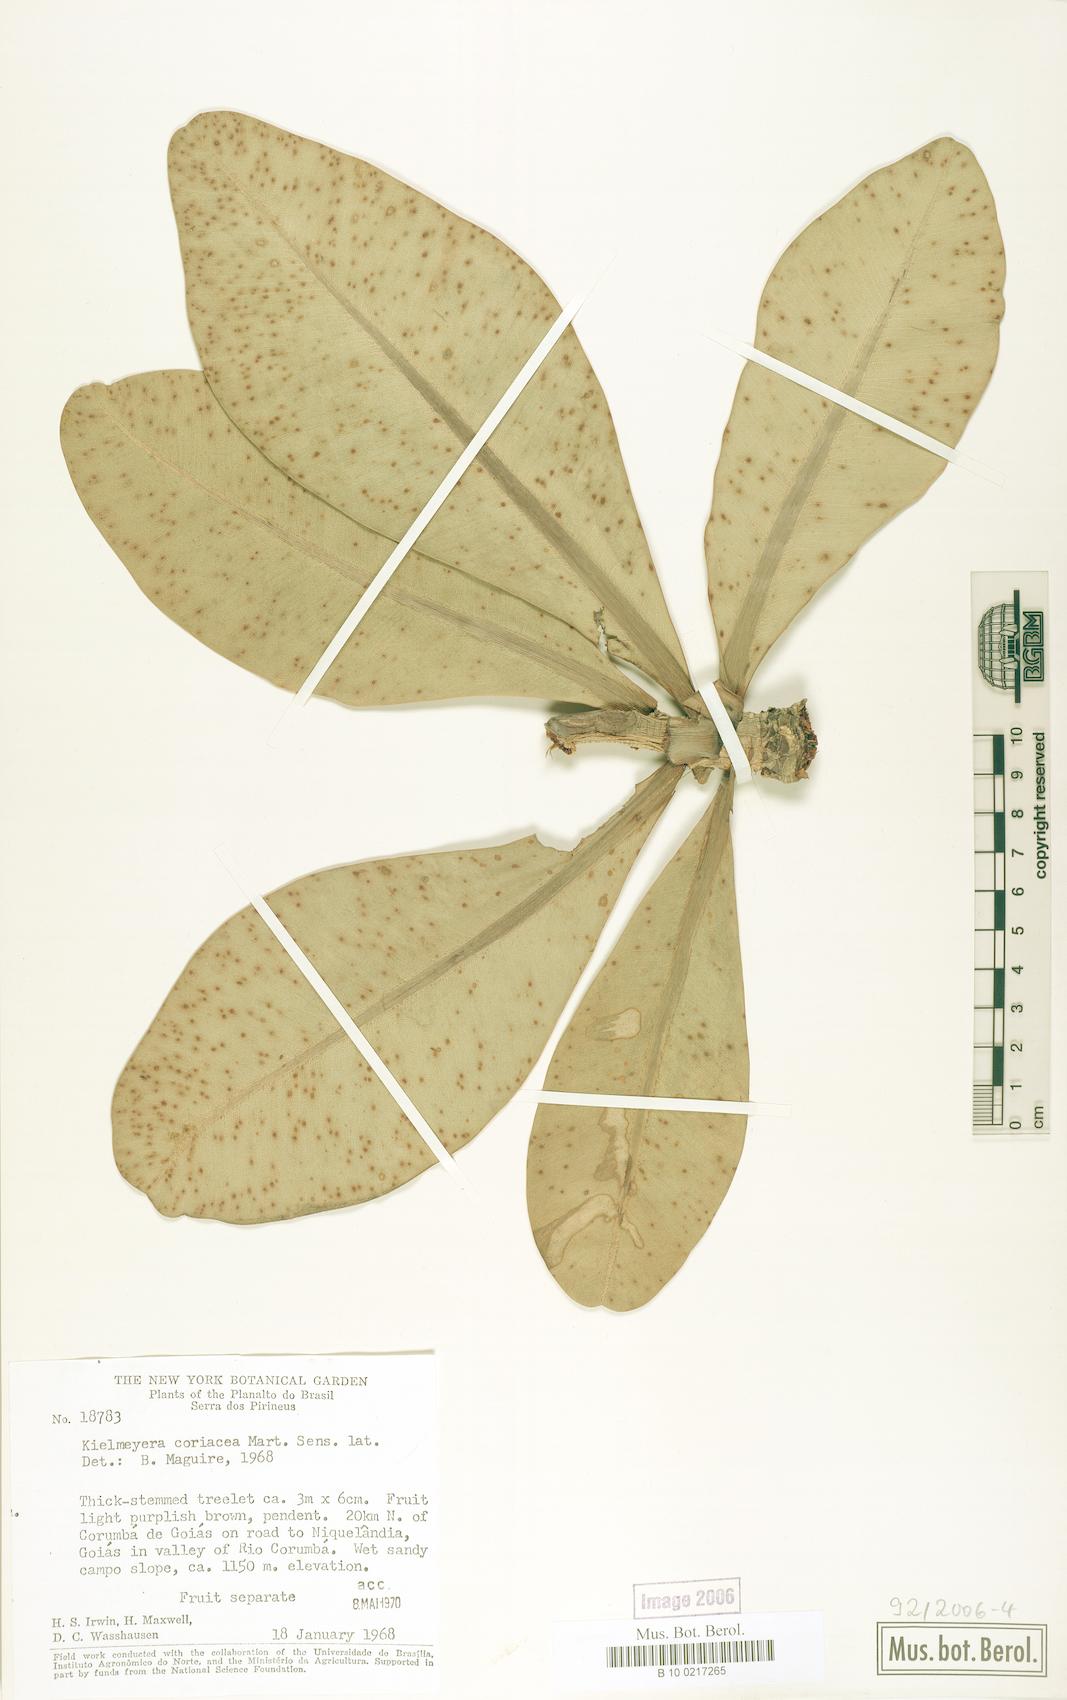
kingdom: Plantae
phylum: Tracheophyta
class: Magnoliopsida
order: Malpighiales
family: Calophyllaceae
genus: Kielmeyera
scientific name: Kielmeyera coriacea
